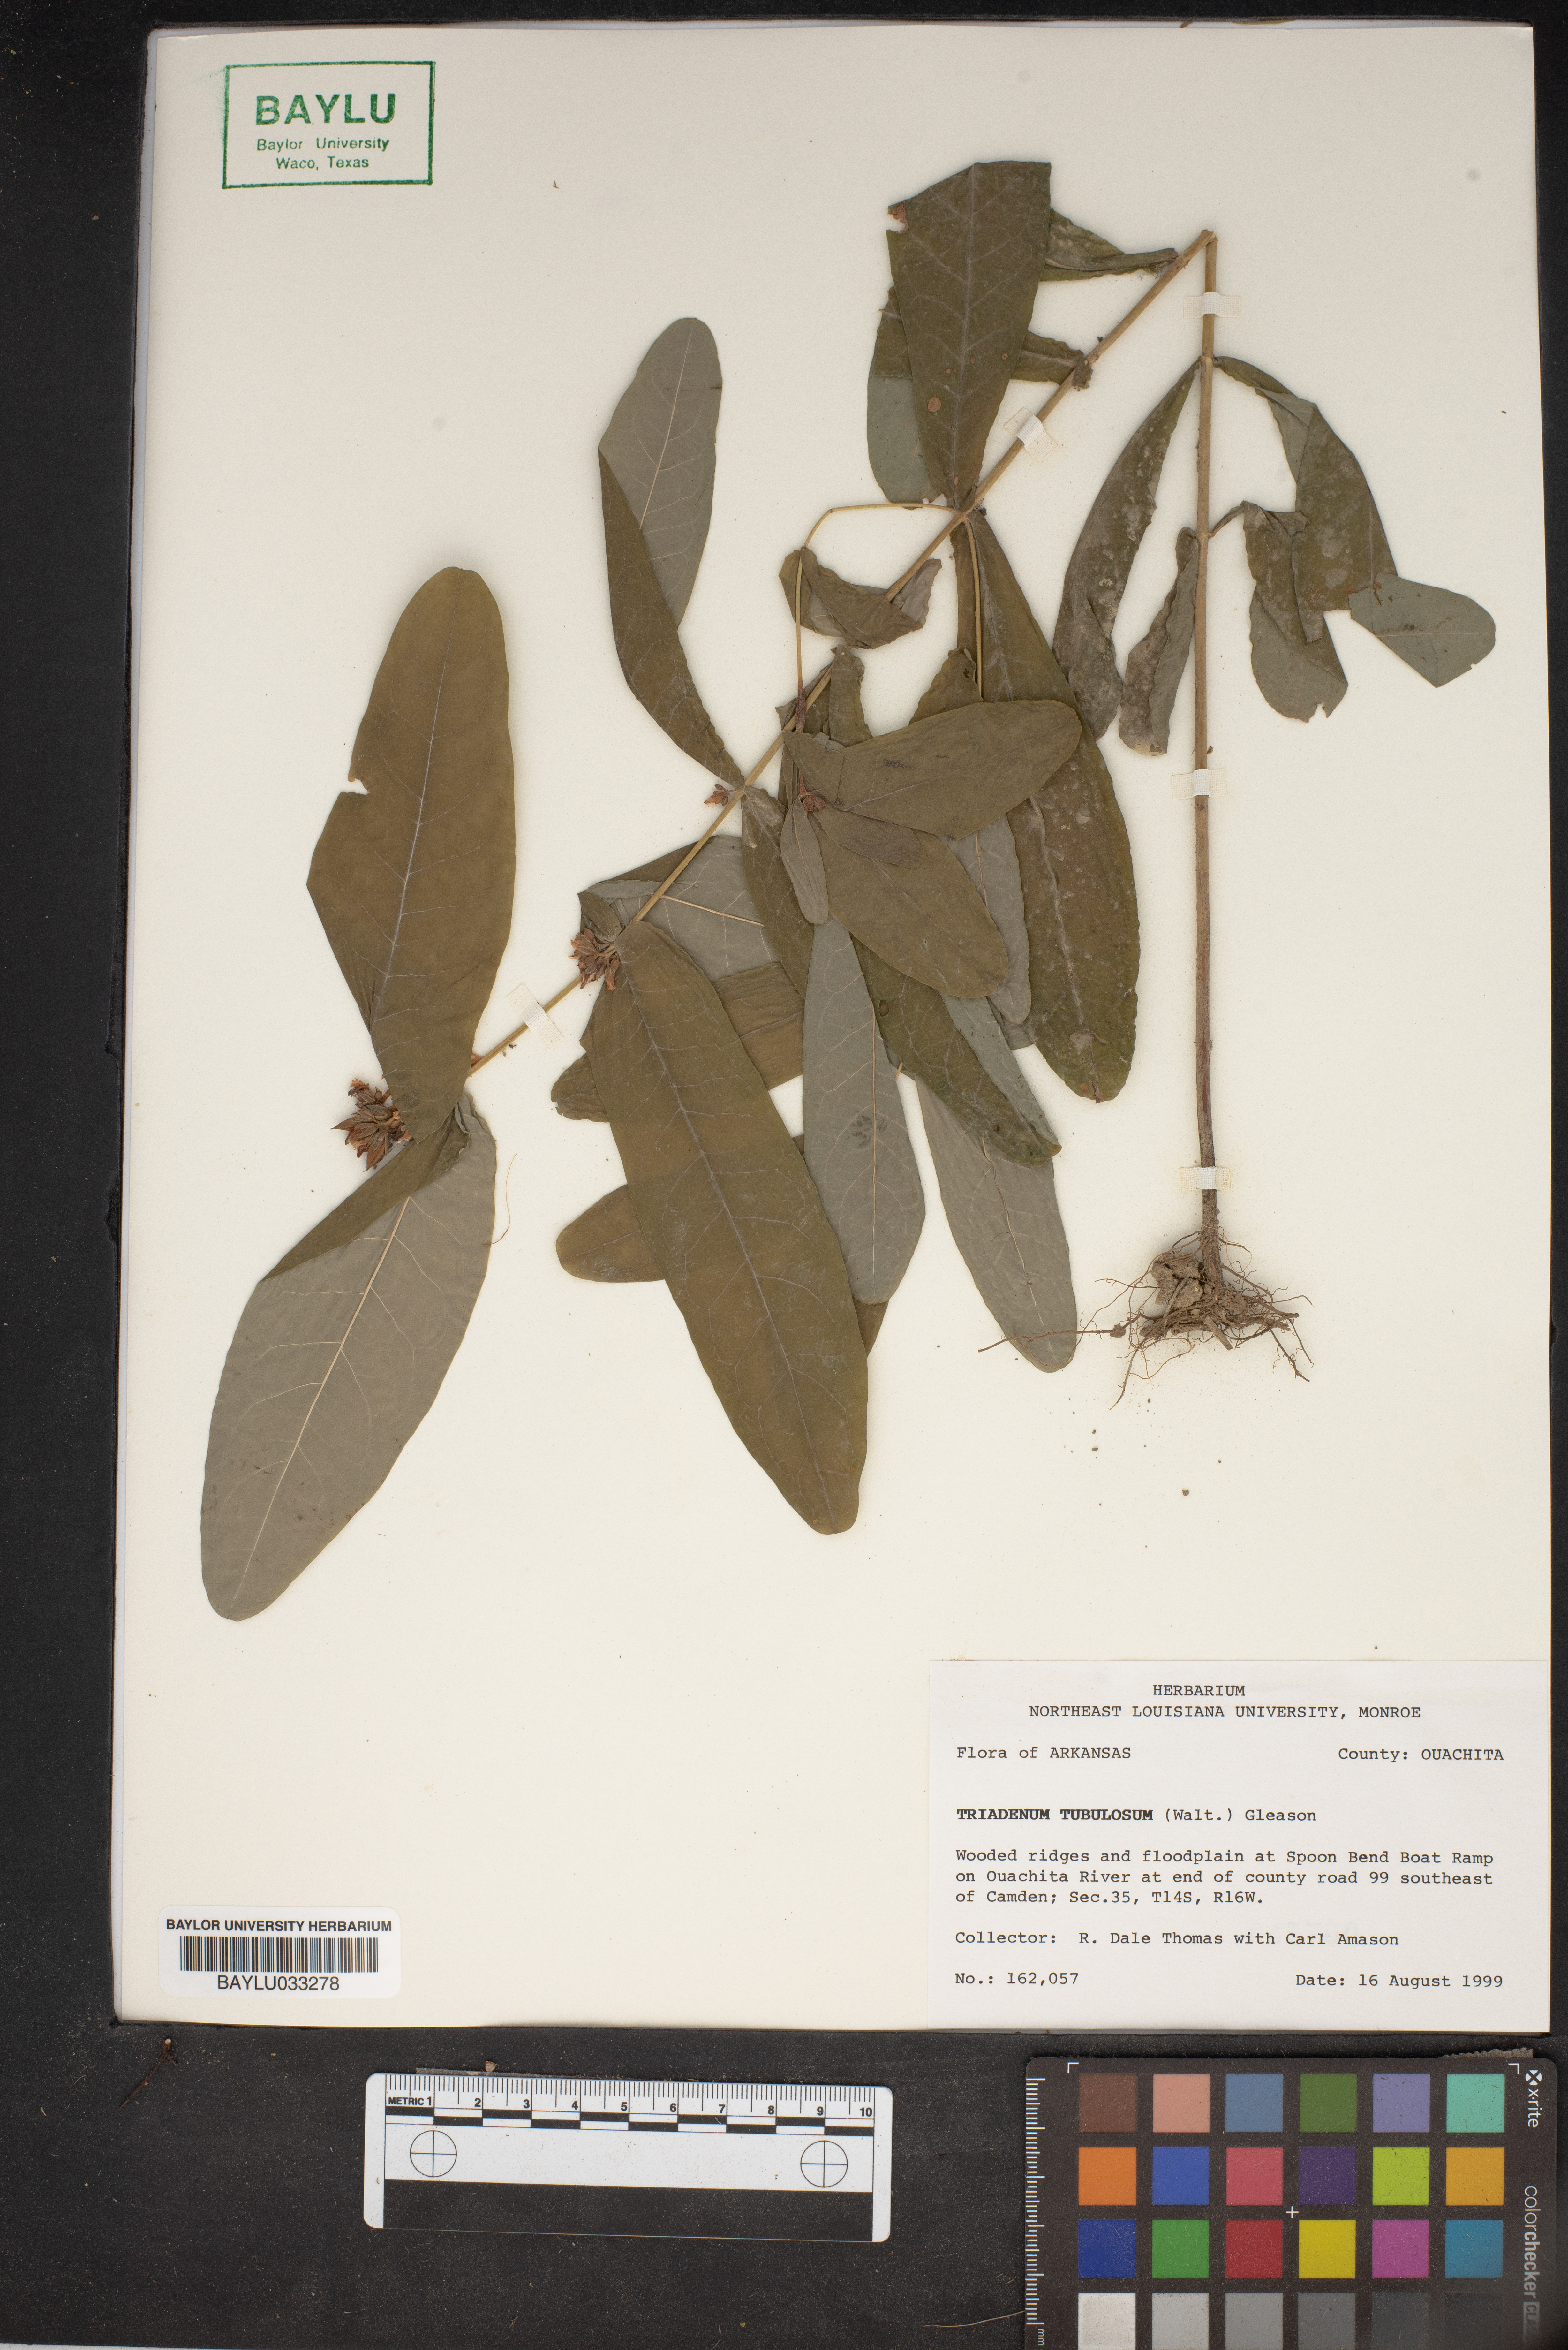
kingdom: Plantae
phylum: Tracheophyta
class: Magnoliopsida
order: Malpighiales
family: Hypericaceae
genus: Triadenum
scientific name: Triadenum tubulosum
